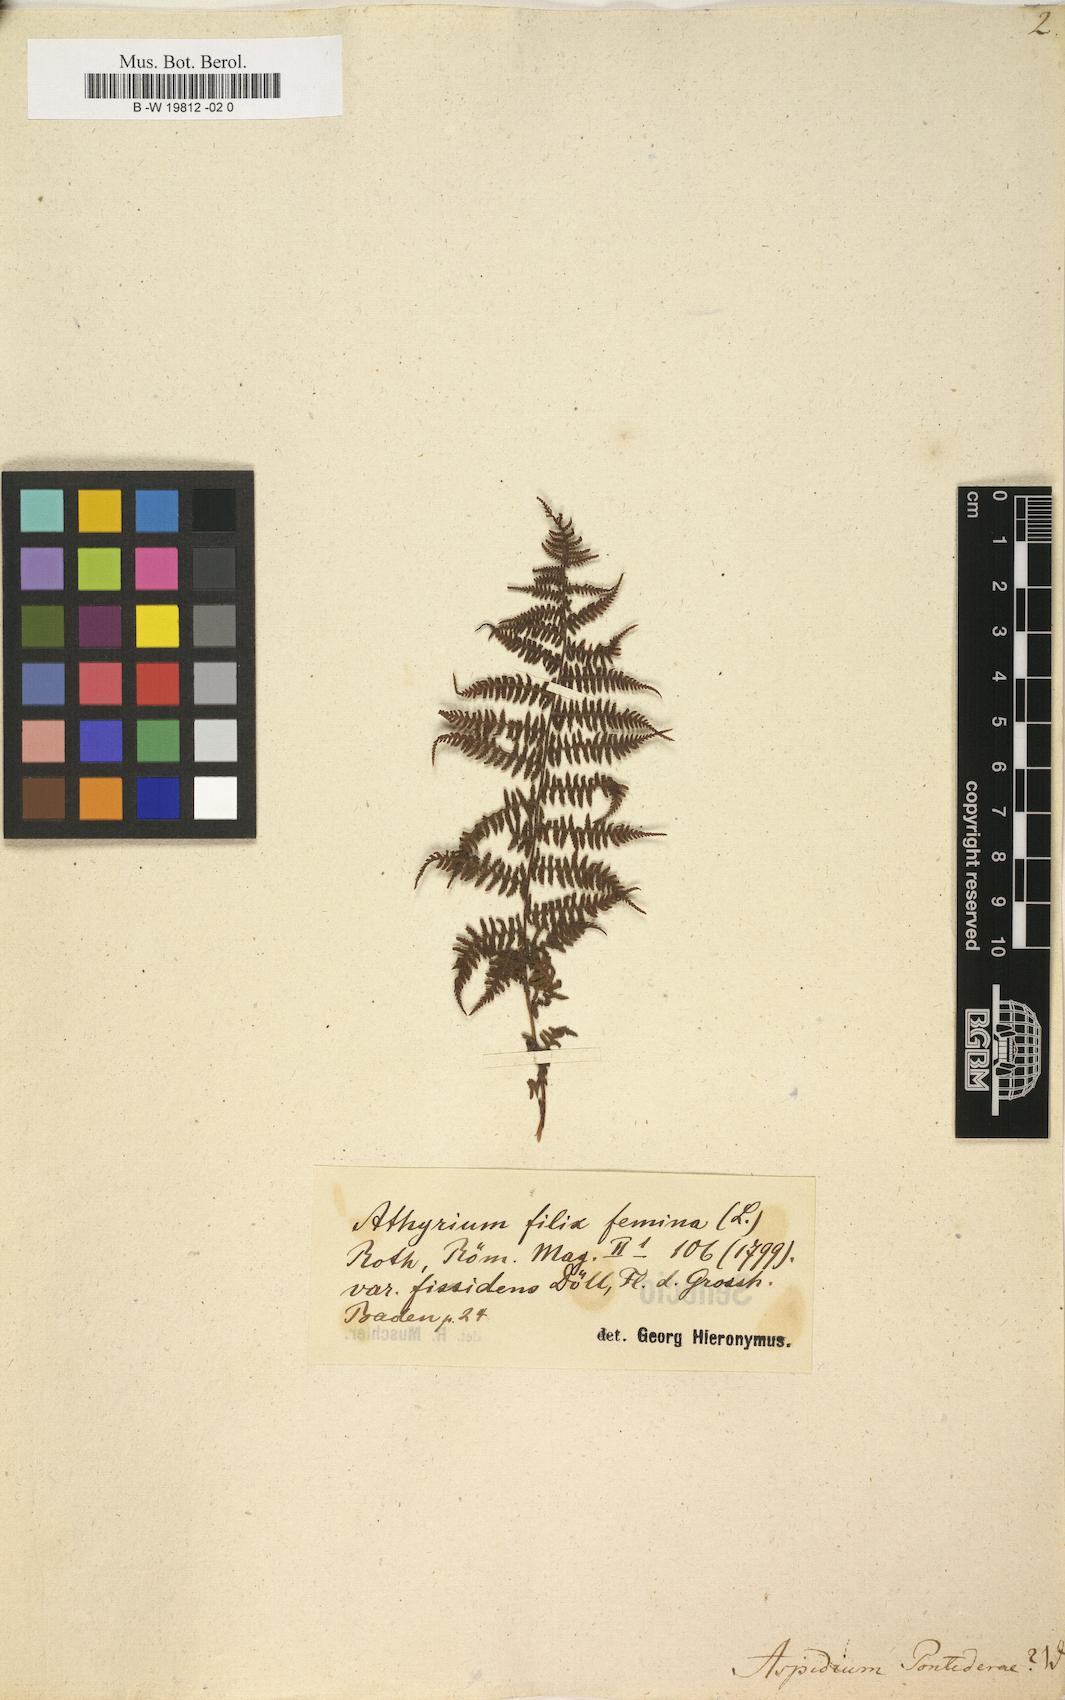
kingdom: Plantae
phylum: Tracheophyta
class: Polypodiopsida
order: Polypodiales
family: Athyriaceae
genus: Athyrium
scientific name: Athyrium filix-femina
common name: Lady fern
